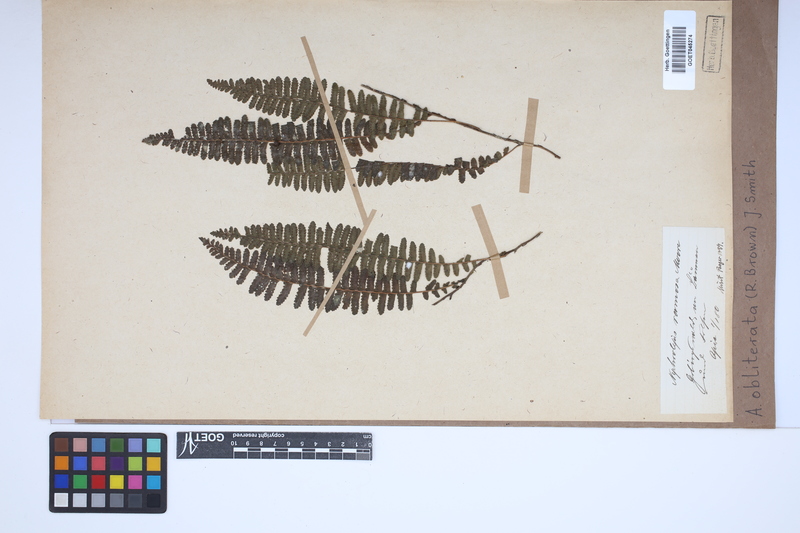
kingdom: Plantae
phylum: Tracheophyta
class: Polypodiopsida
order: Polypodiales
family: Nephrolepidaceae
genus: Nephrolepis
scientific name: Nephrolepis obliterata
